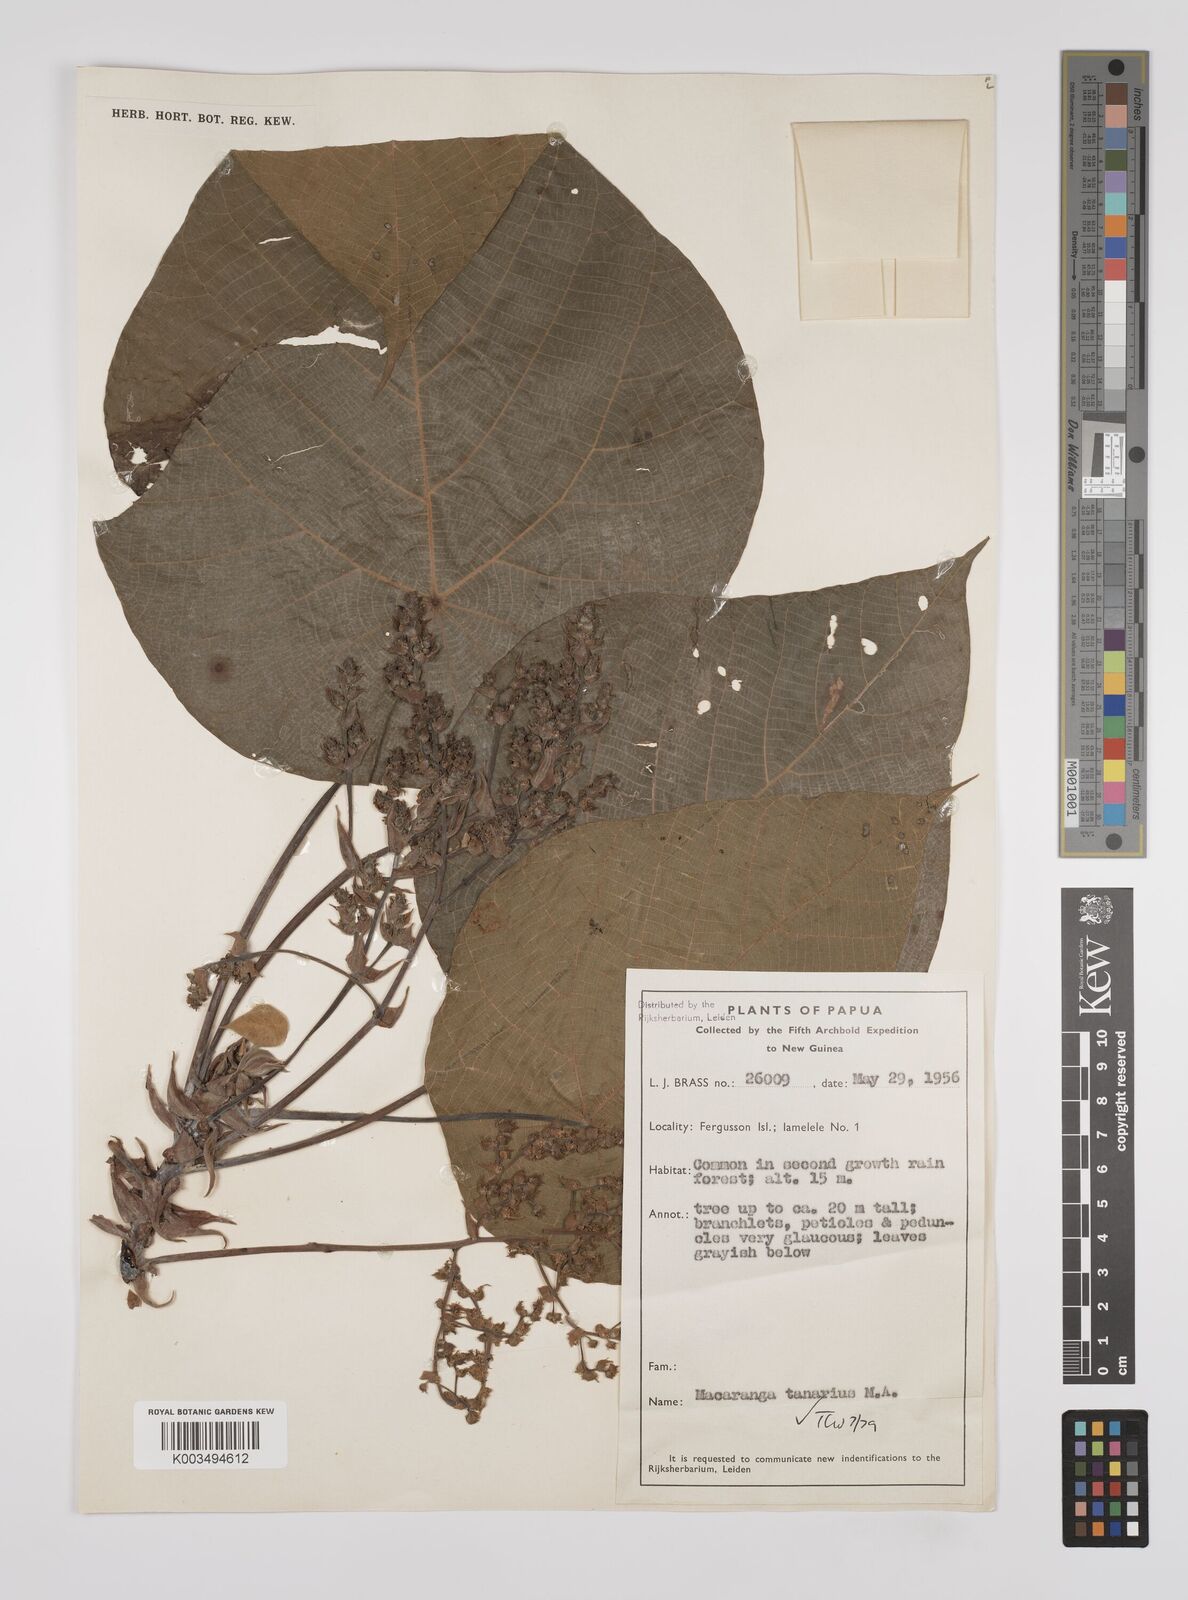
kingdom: Plantae
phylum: Tracheophyta
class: Magnoliopsida
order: Malpighiales
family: Euphorbiaceae
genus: Macaranga
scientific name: Macaranga tanarius
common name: Parasol leaf tree
